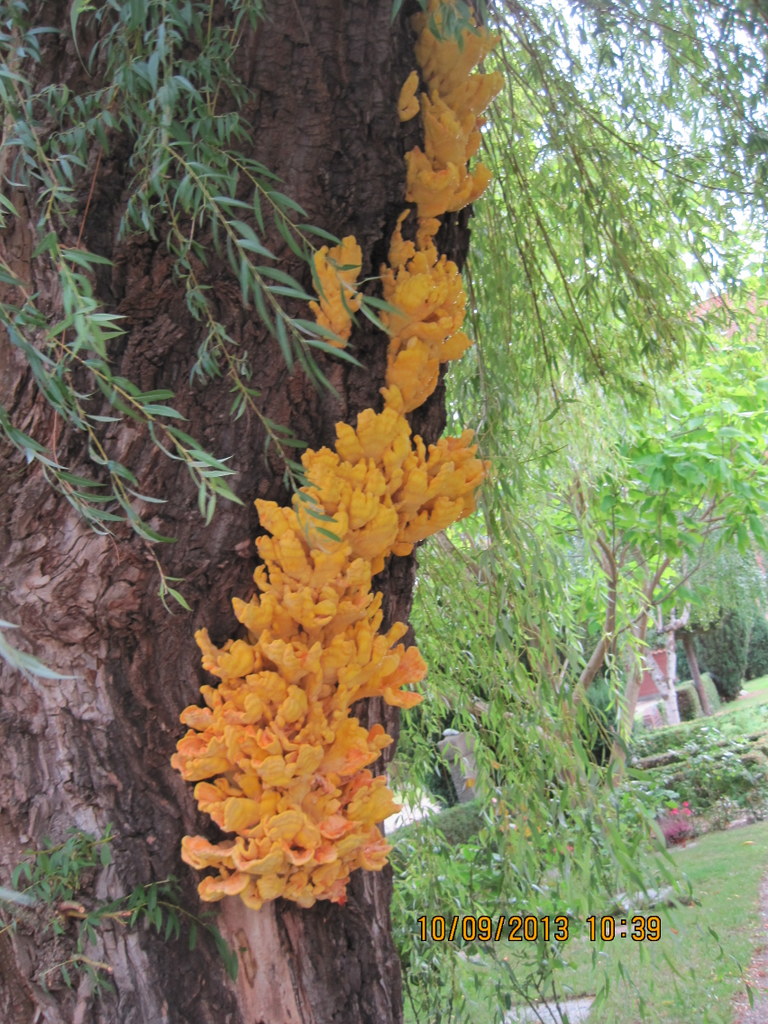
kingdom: Fungi
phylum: Basidiomycota
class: Agaricomycetes
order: Polyporales
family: Laetiporaceae
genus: Laetiporus
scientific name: Laetiporus sulphureus
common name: svovlporesvamp
